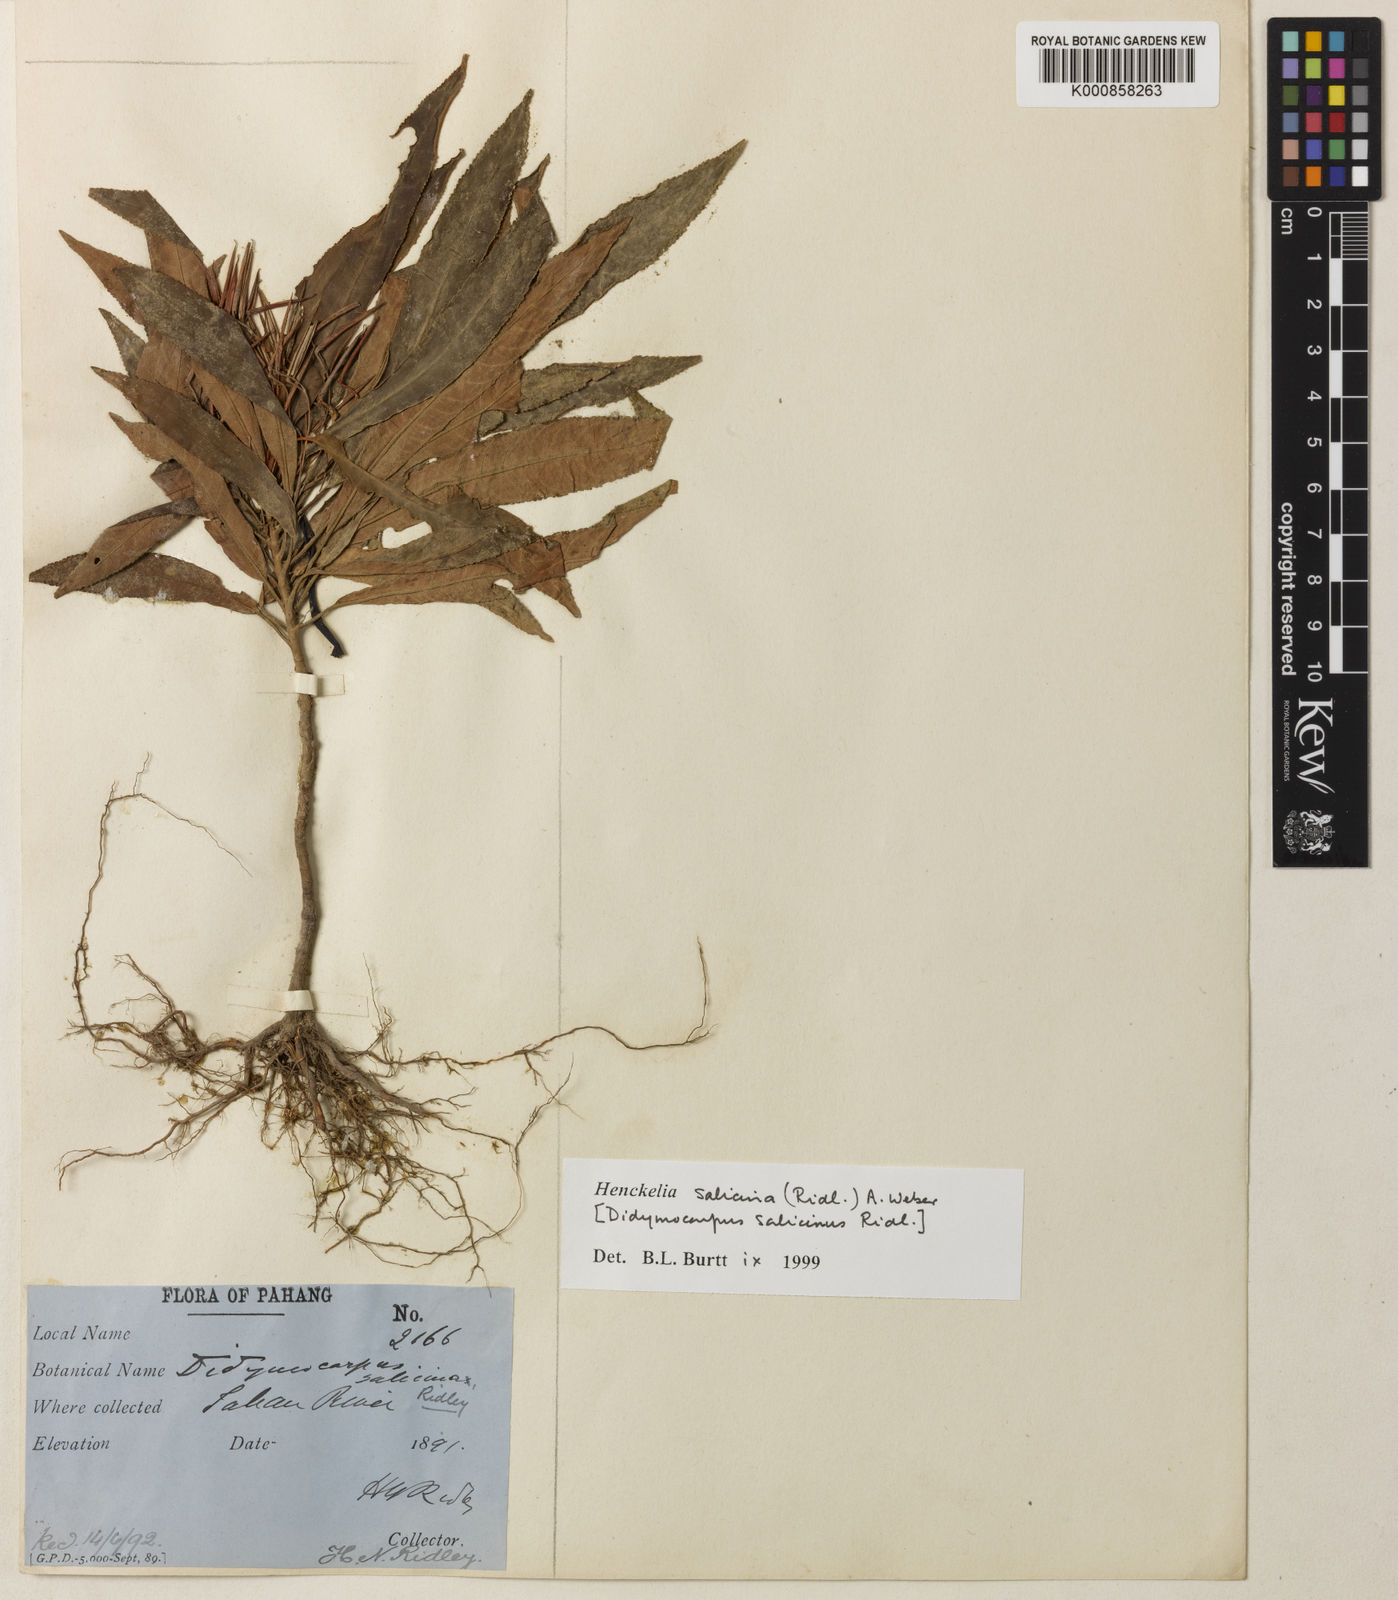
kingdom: Plantae
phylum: Tracheophyta
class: Magnoliopsida
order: Lamiales
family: Gesneriaceae
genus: Codonoboea
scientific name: Codonoboea salicina
